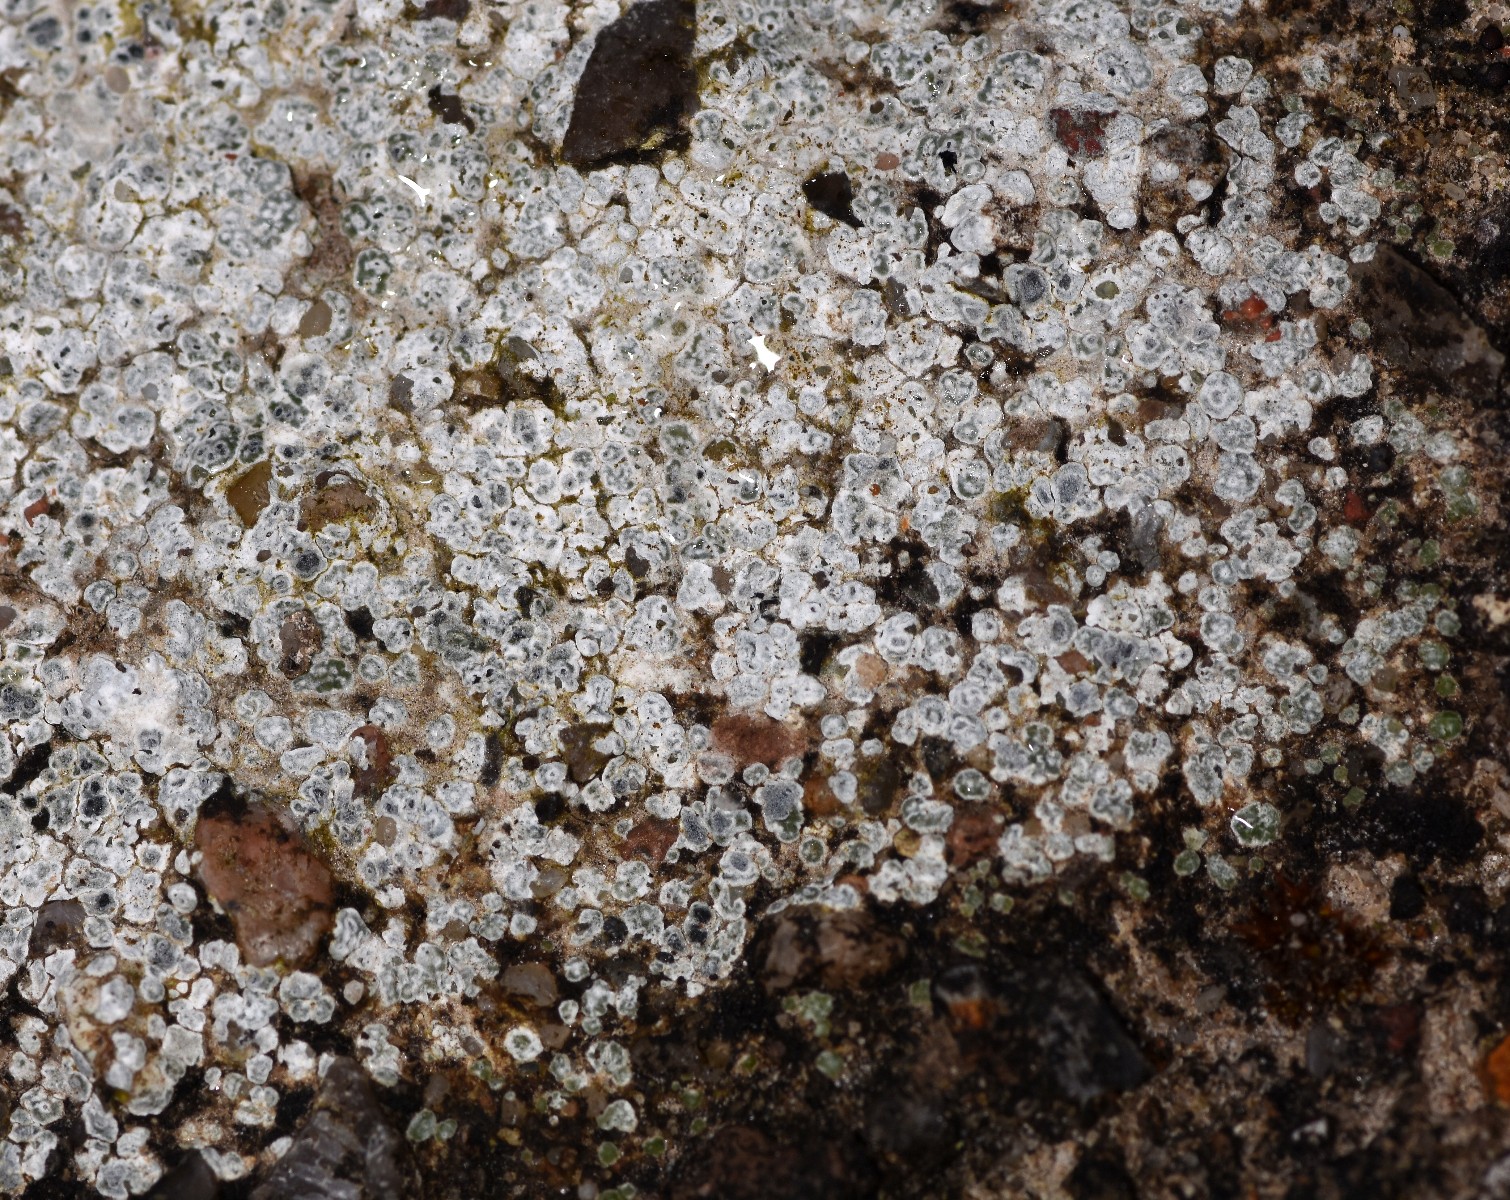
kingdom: Fungi
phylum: Ascomycota
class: Lecanoromycetes
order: Pertusariales
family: Megasporaceae
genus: Circinaria
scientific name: Circinaria contorta
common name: indviklet hulskivelav
